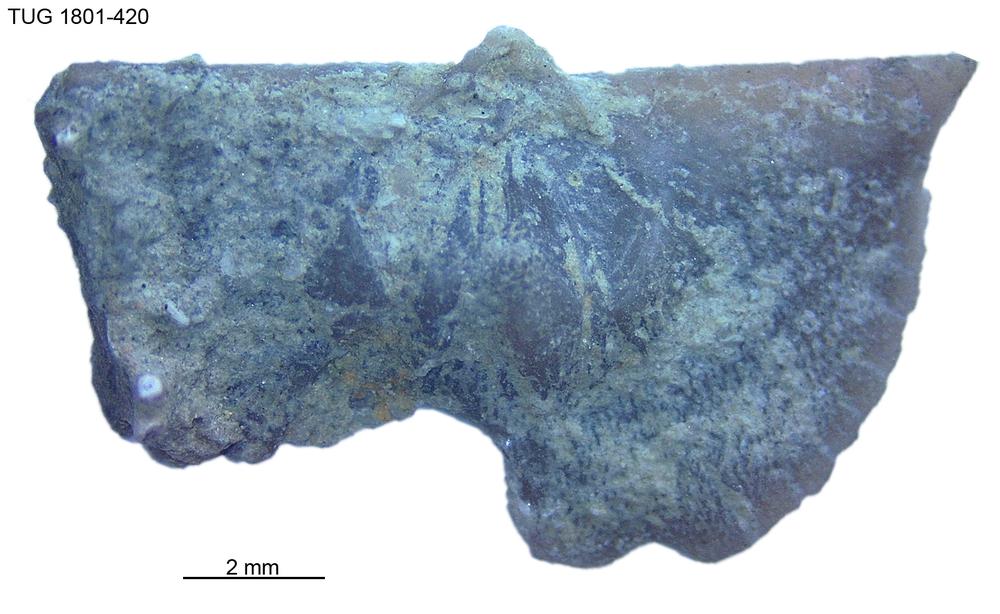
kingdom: Animalia
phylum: Brachiopoda
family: Oldhaminidae
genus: Eoplectodonta
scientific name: Eoplectodonta
